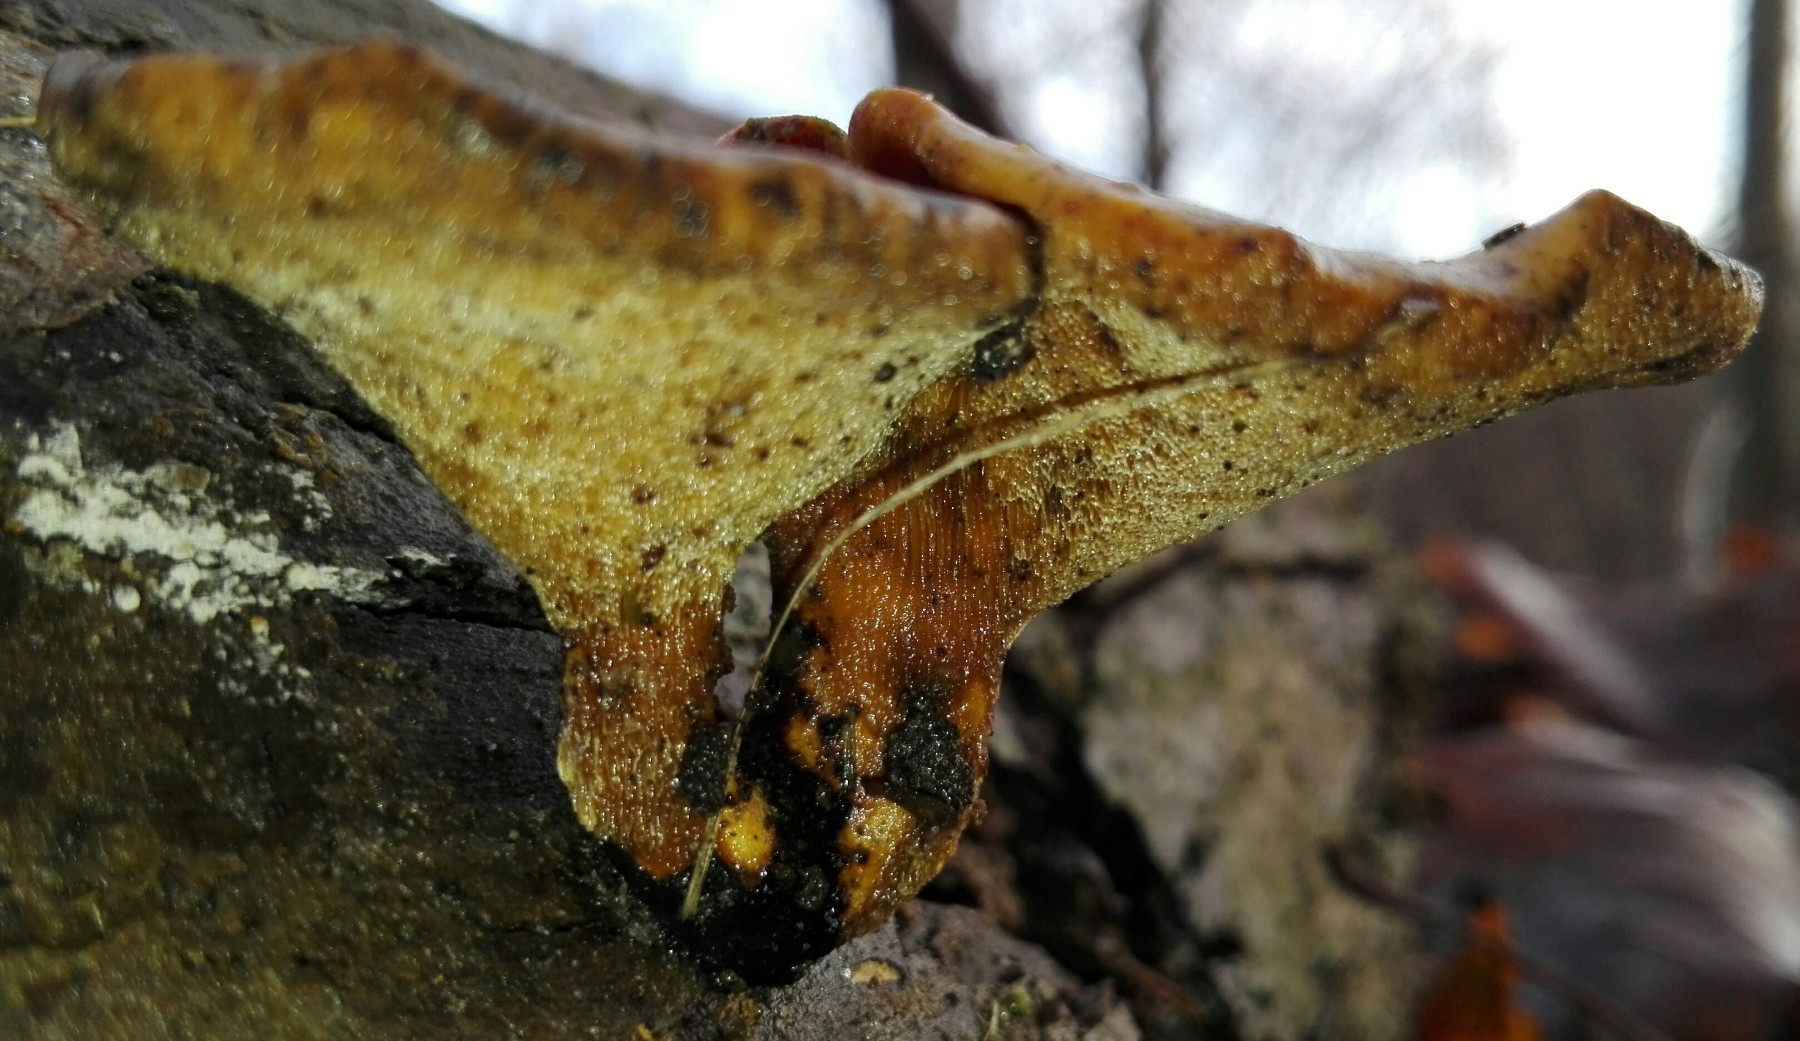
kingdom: Fungi
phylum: Basidiomycota
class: Agaricomycetes
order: Polyporales
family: Polyporaceae
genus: Lentinus
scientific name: Lentinus brumalis
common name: vinter-stilkporesvamp
